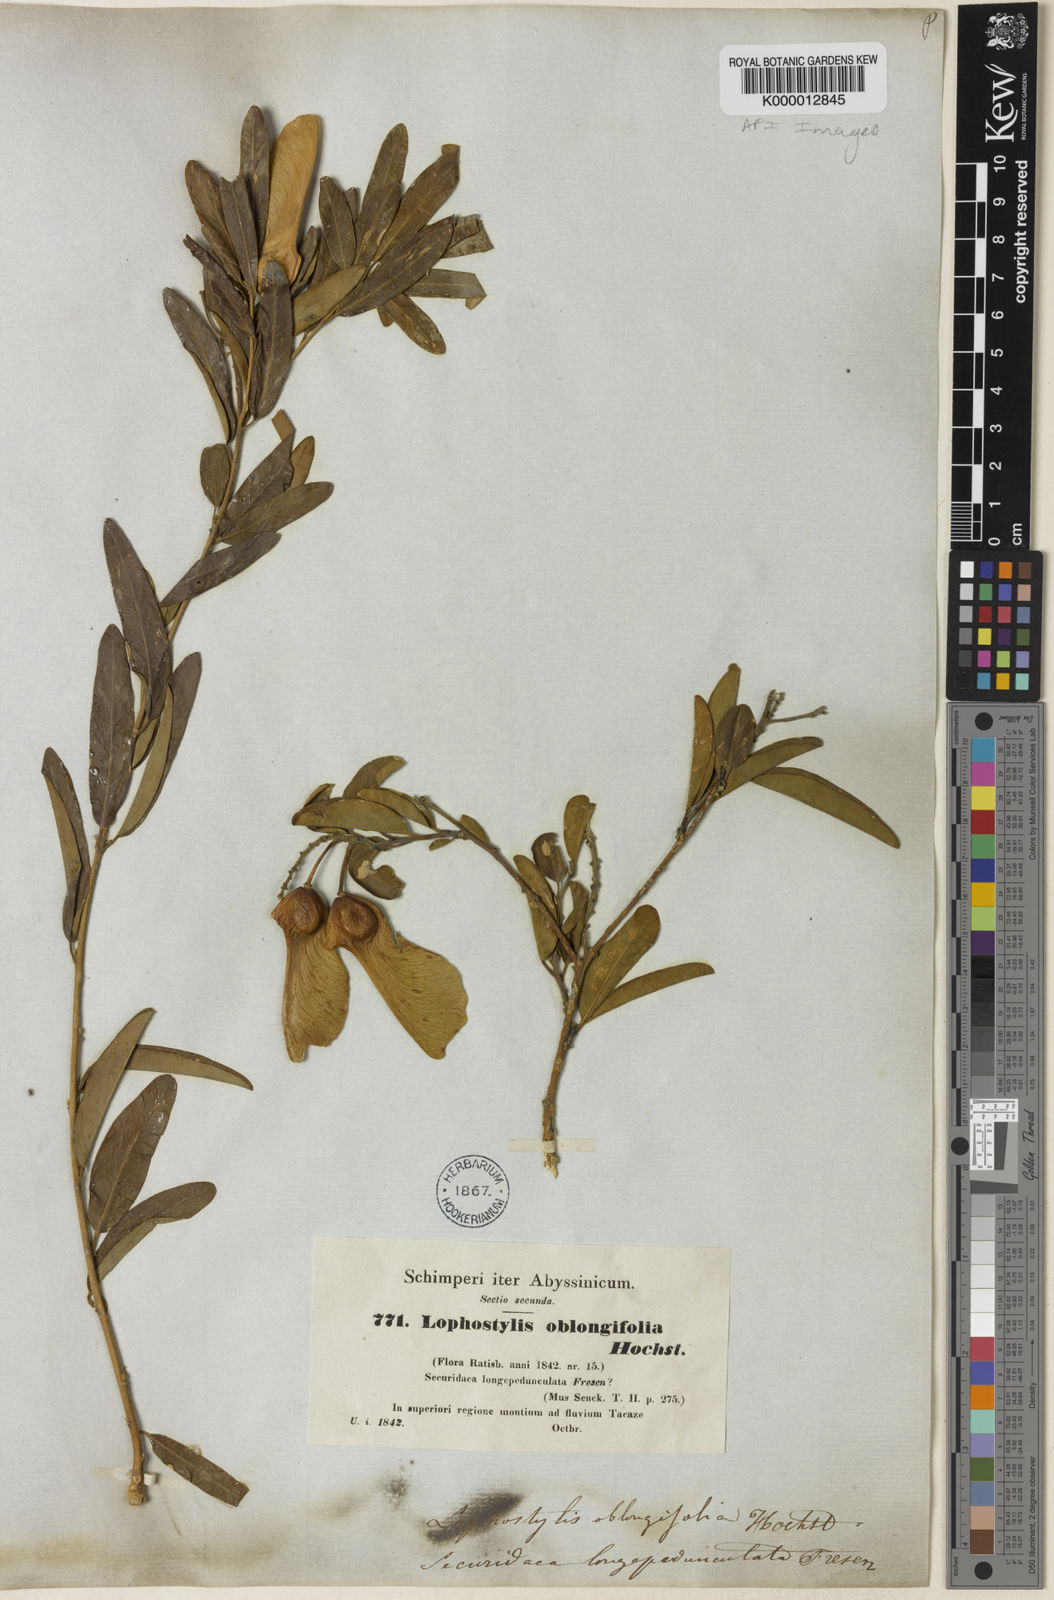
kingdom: Plantae
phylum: Tracheophyta
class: Magnoliopsida
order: Fabales
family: Polygalaceae
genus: Securidaca
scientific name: Securidaca
